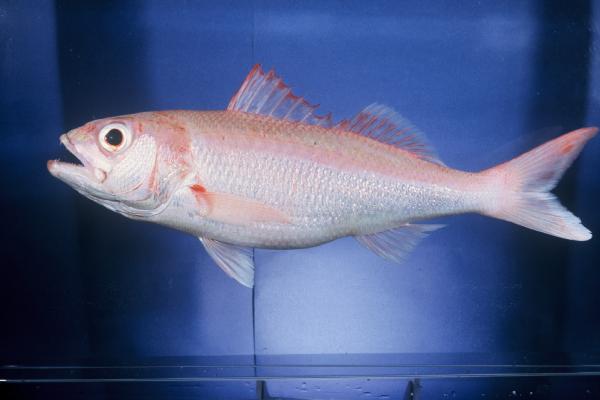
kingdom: Animalia
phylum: Chordata
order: Perciformes
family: Lutjanidae
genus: Etelis
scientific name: Etelis carbunculus
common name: Deepwater red snapper
